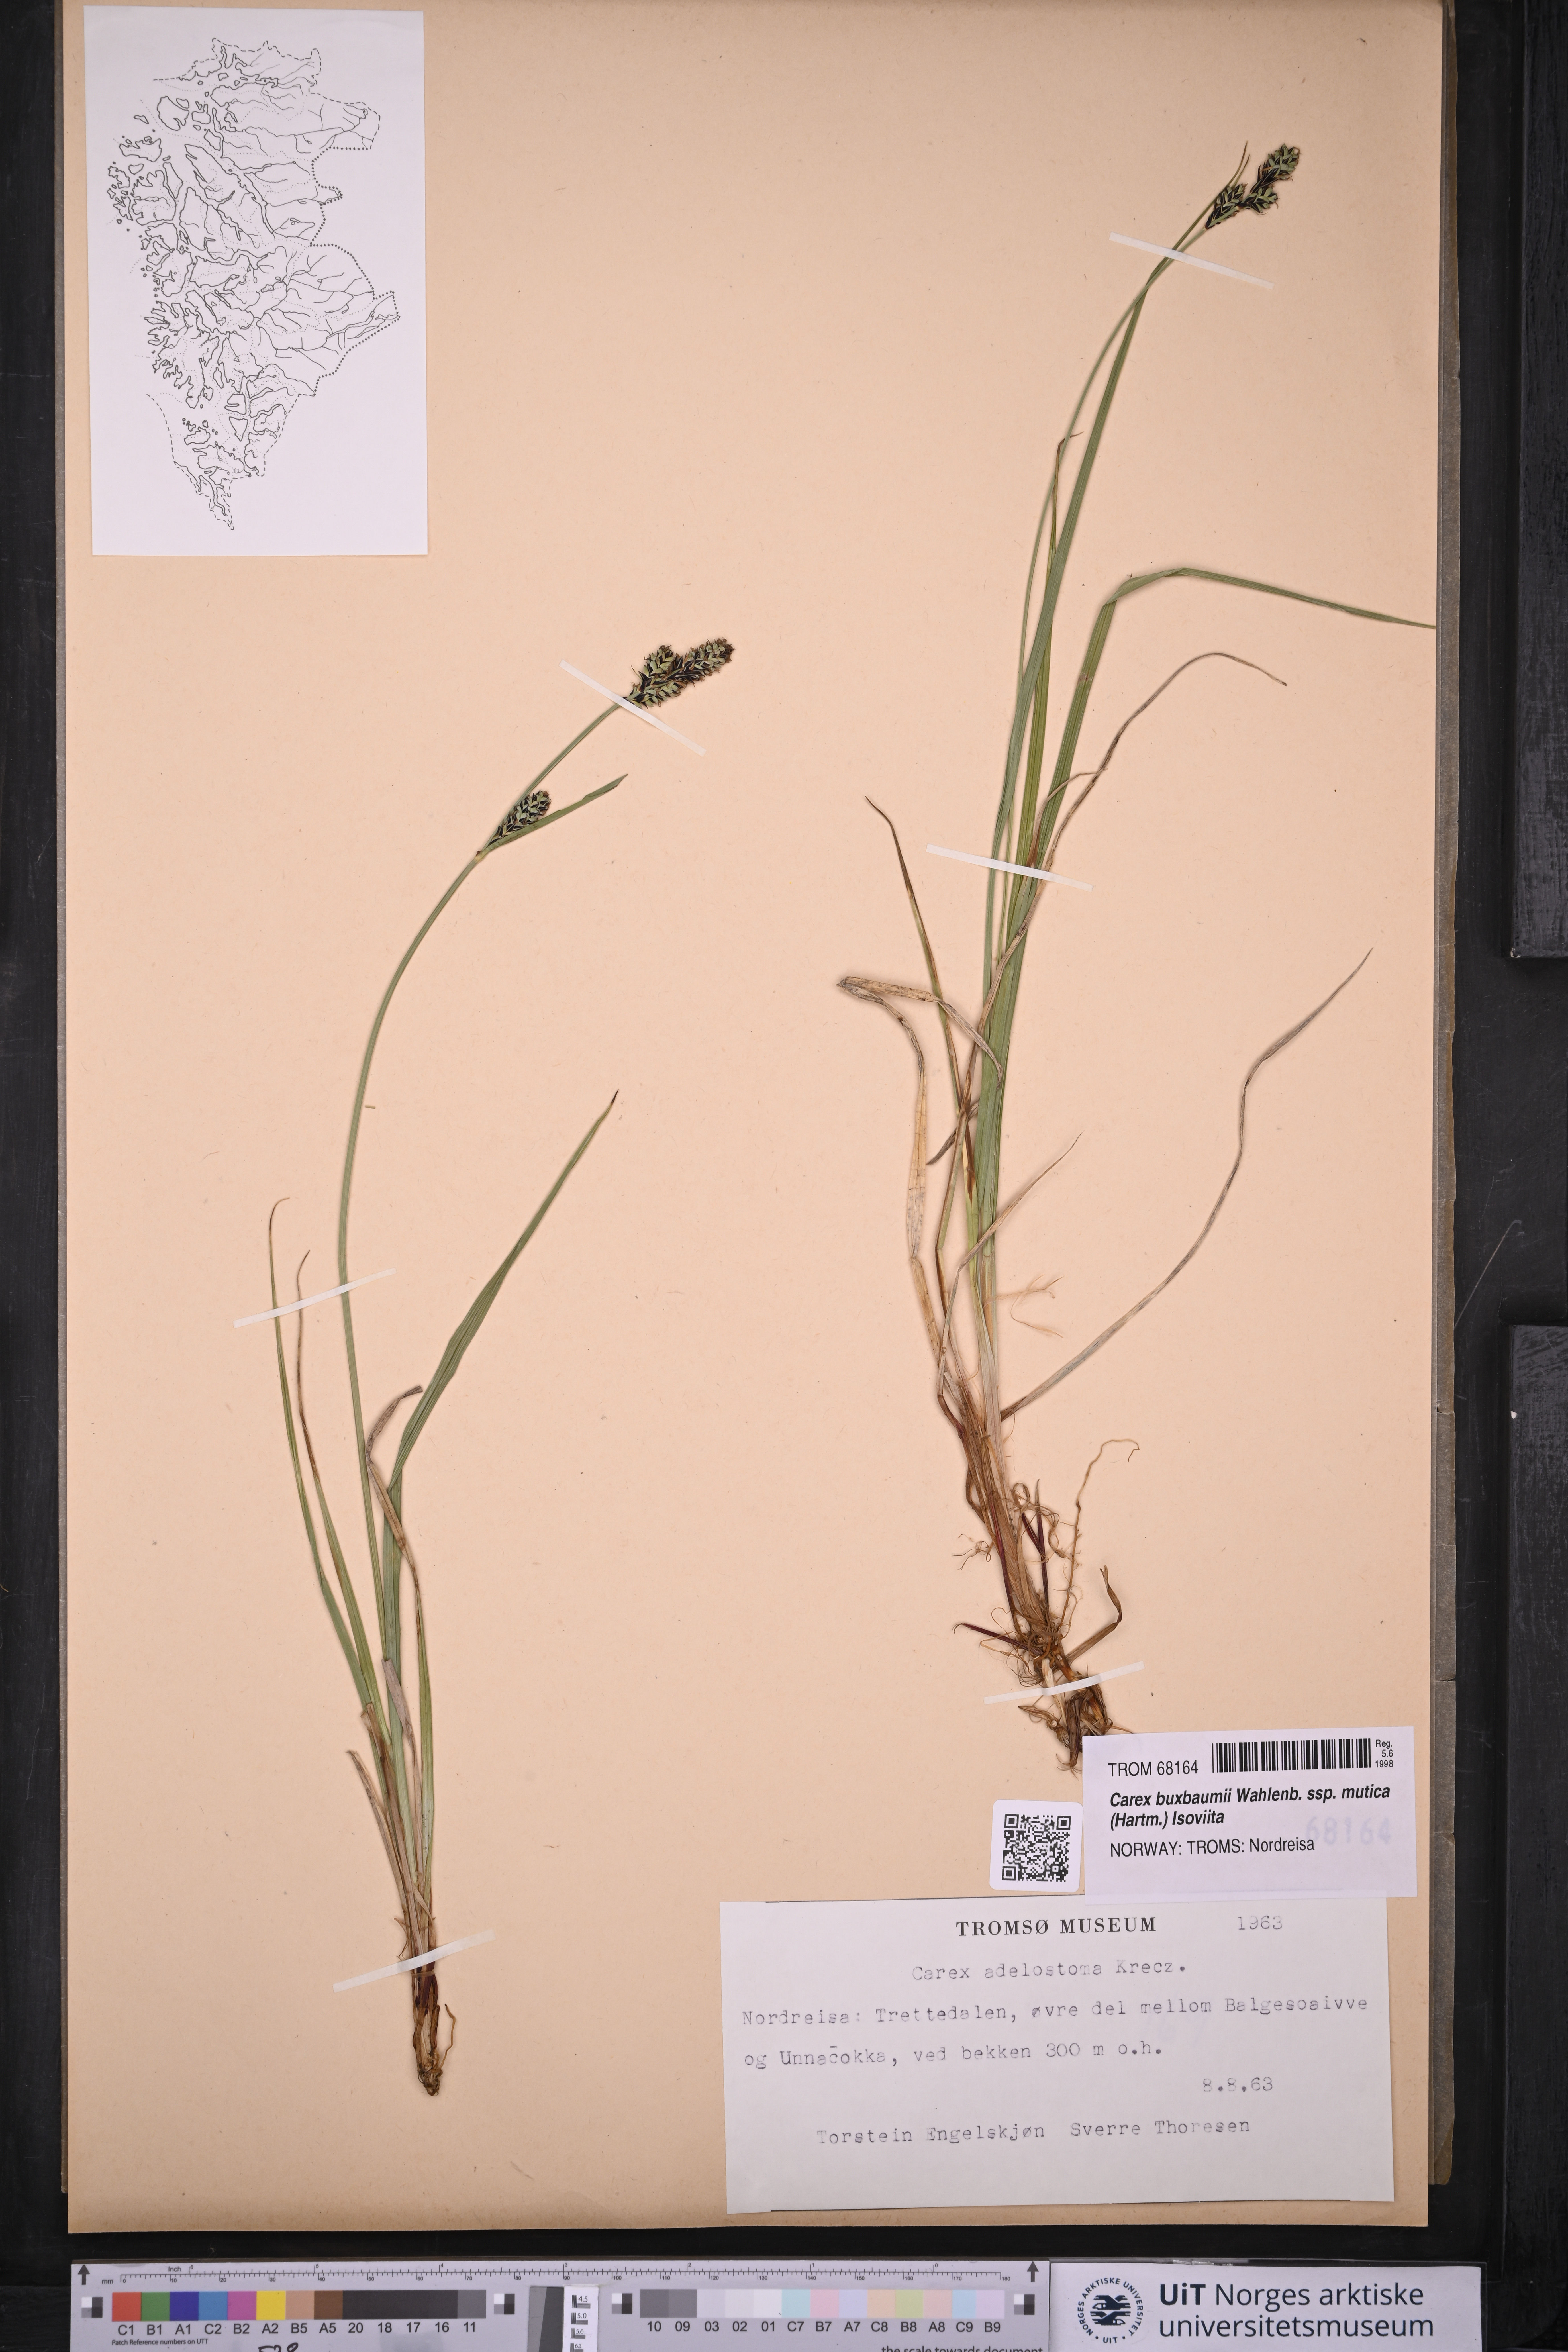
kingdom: Plantae
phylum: Tracheophyta
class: Liliopsida
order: Poales
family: Cyperaceae
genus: Carex
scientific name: Carex adelostoma
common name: Circumpolar sedge
